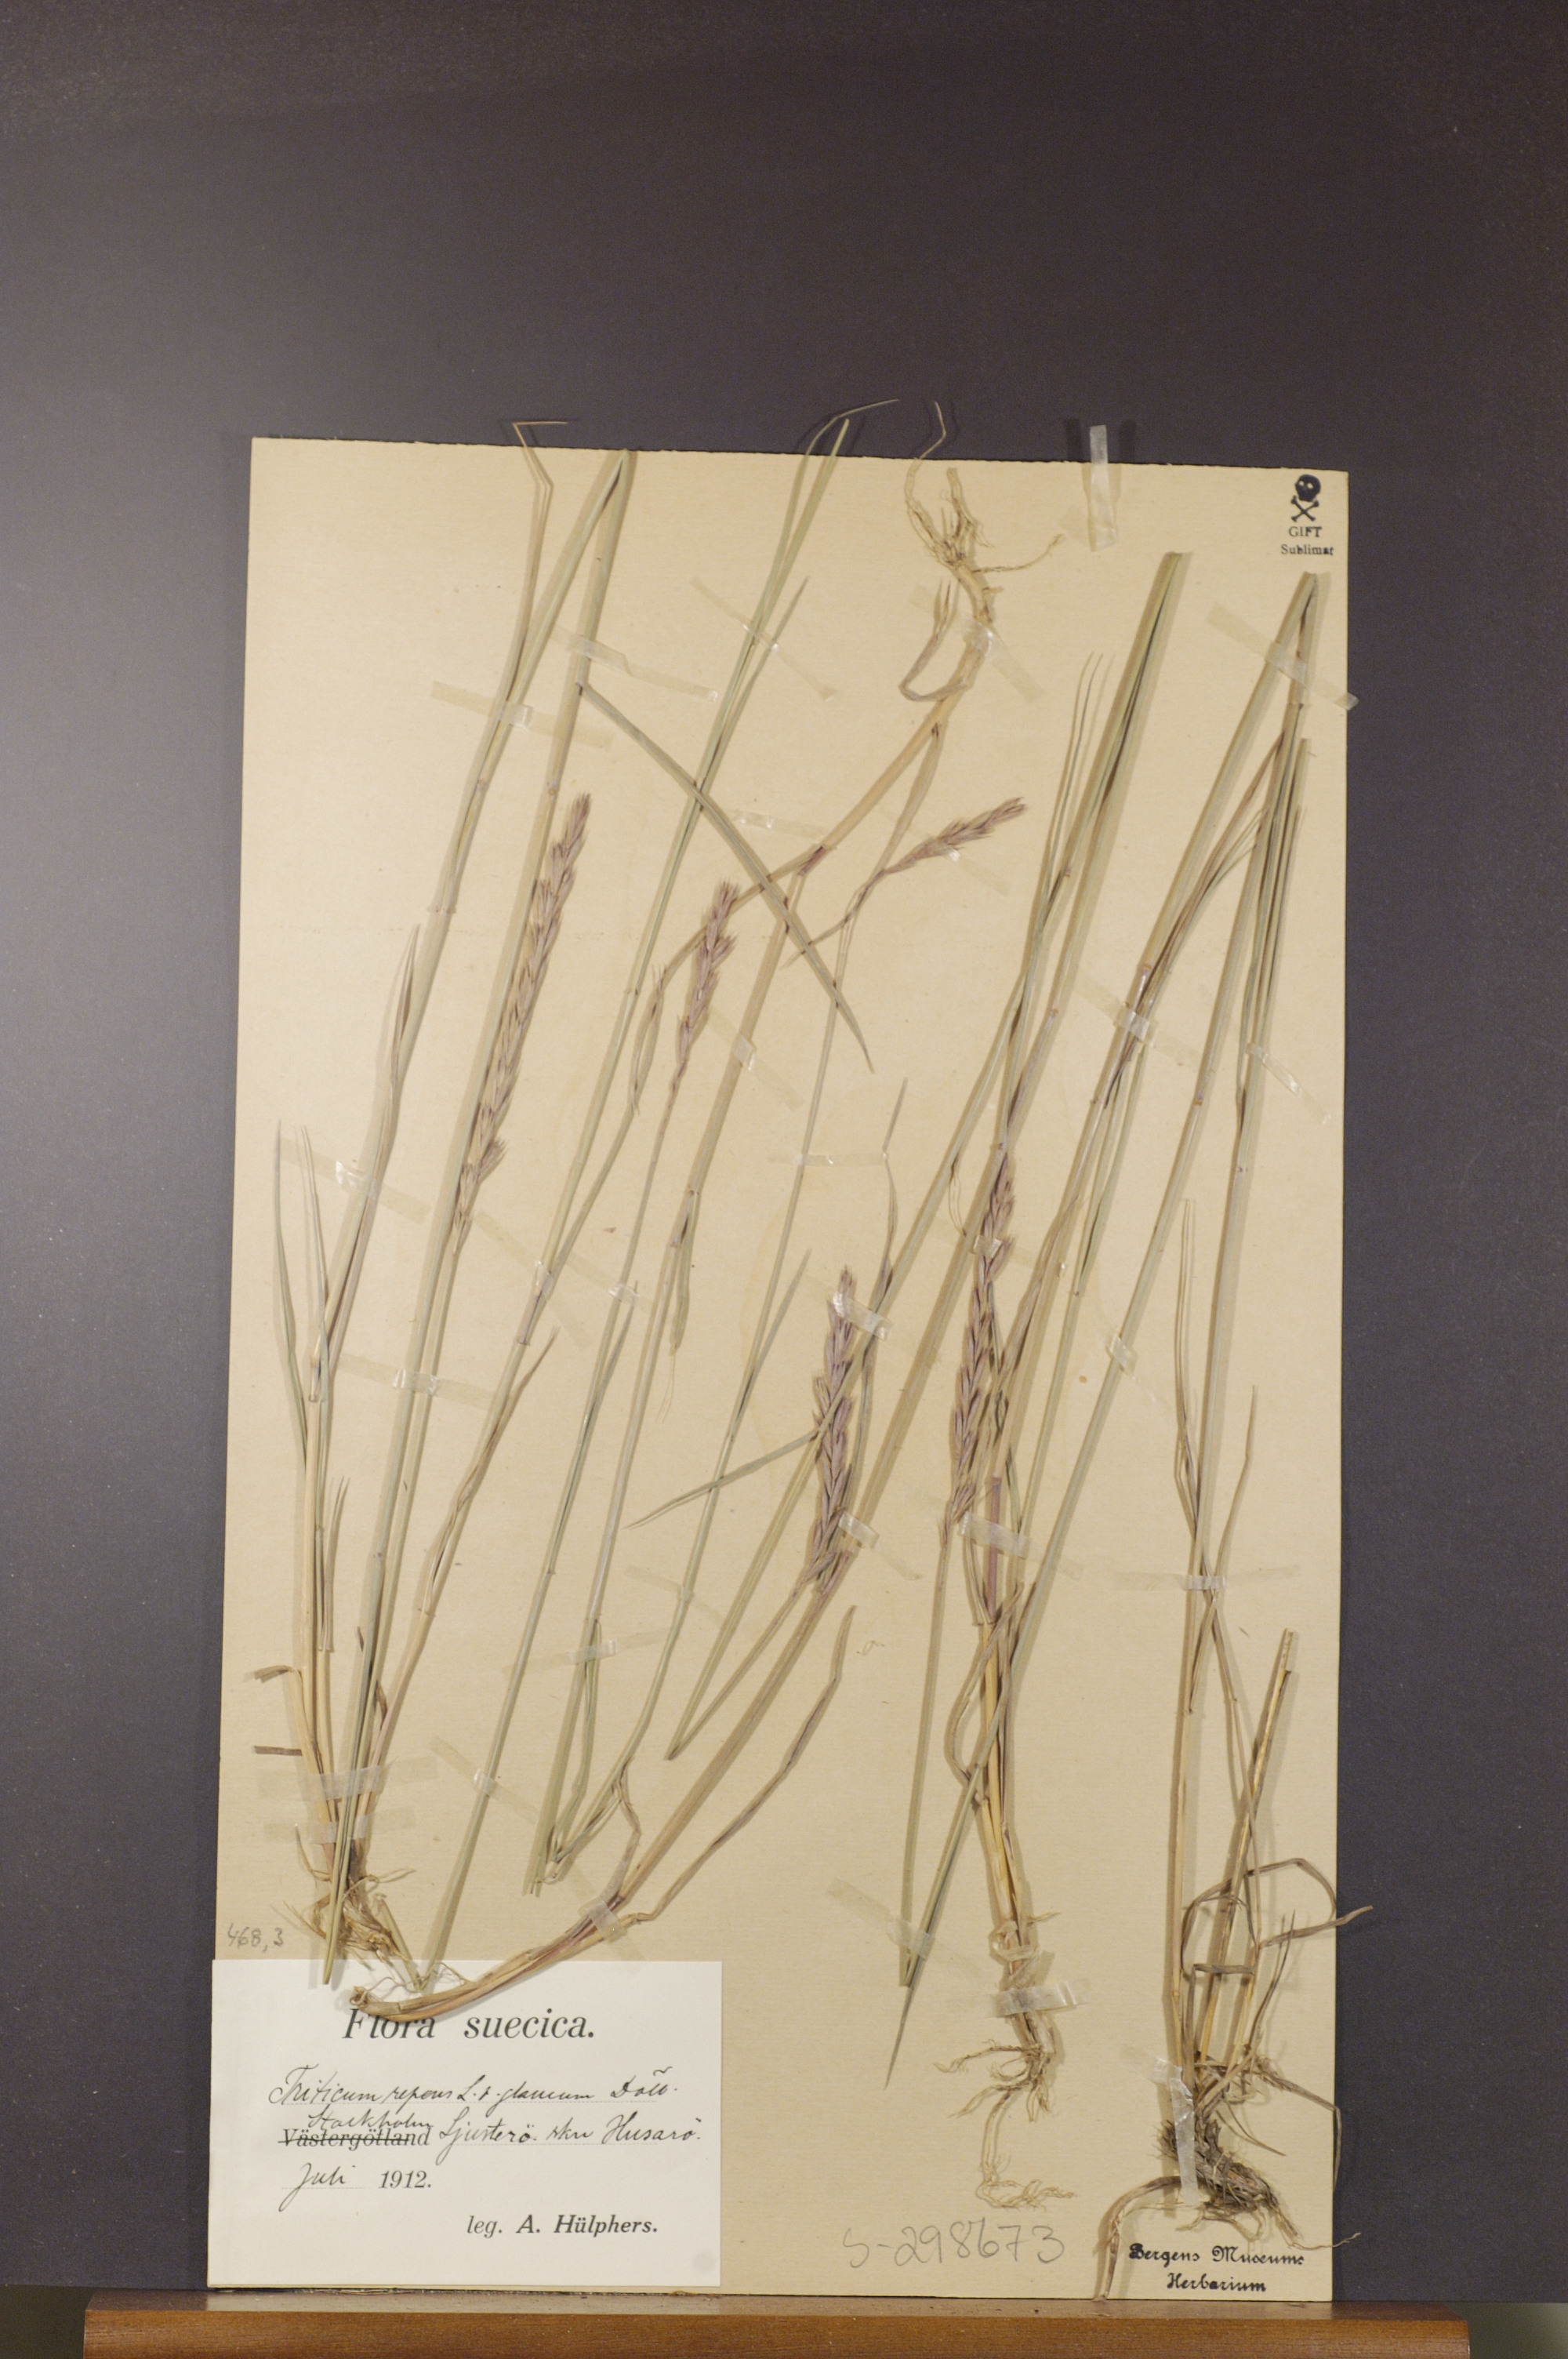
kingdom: Plantae
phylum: Tracheophyta
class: Liliopsida
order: Poales
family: Poaceae
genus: Elymus
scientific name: Elymus repens
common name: Quackgrass
